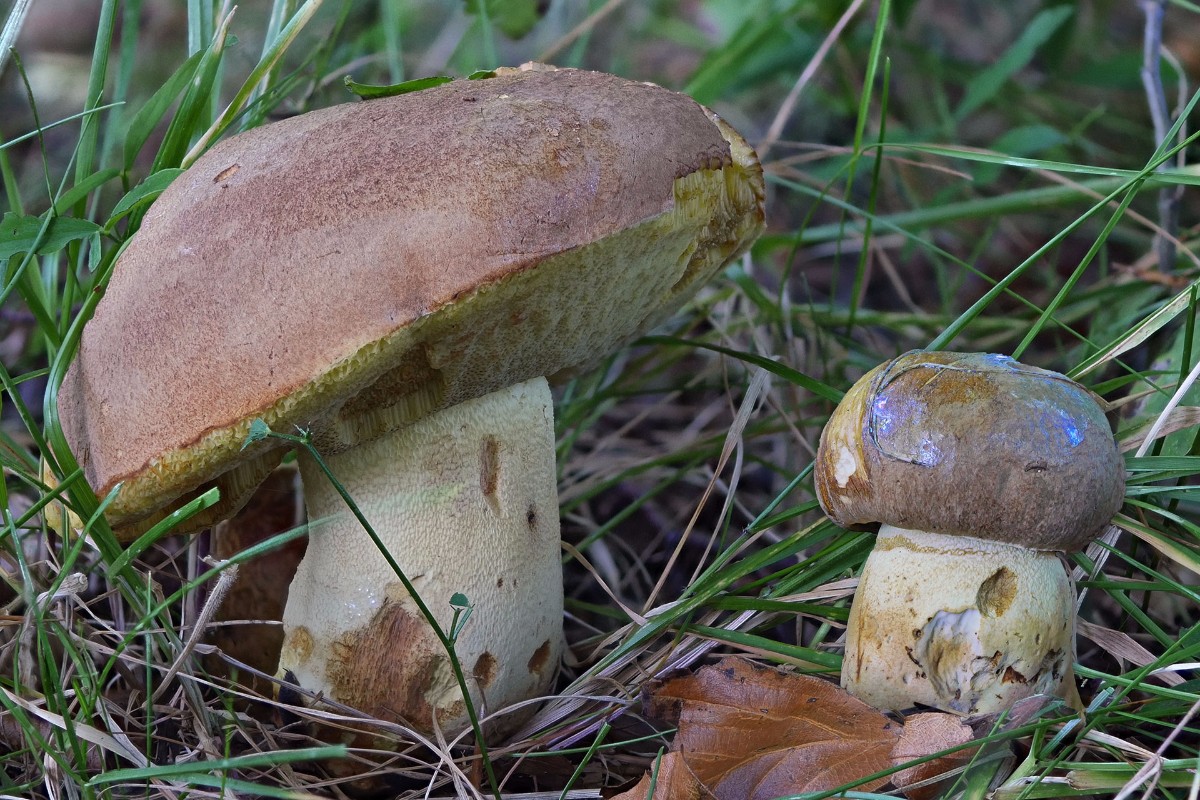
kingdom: Fungi
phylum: Basidiomycota
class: Agaricomycetes
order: Boletales
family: Boletaceae
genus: Butyriboletus
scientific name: Butyriboletus appendiculatus
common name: tenstokket rørhat
